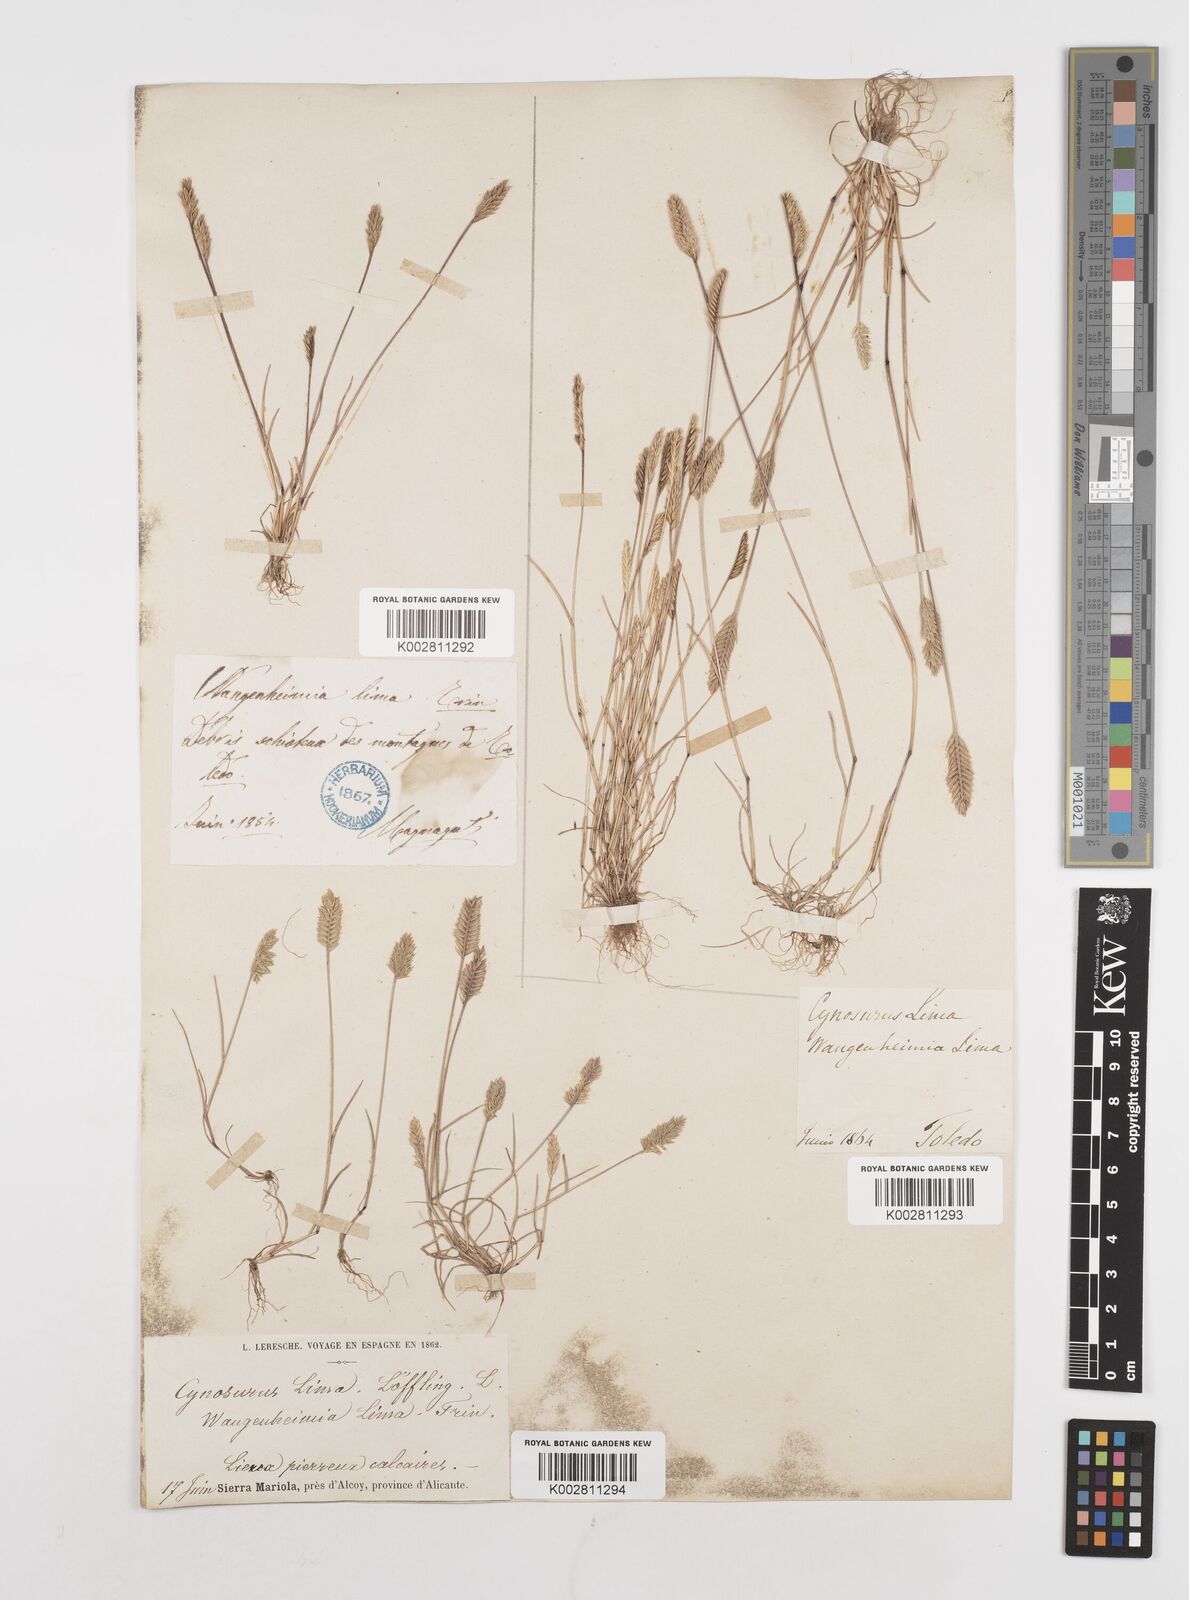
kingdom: Plantae
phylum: Tracheophyta
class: Liliopsida
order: Poales
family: Poaceae
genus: Wangenheimia
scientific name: Wangenheimia lima
